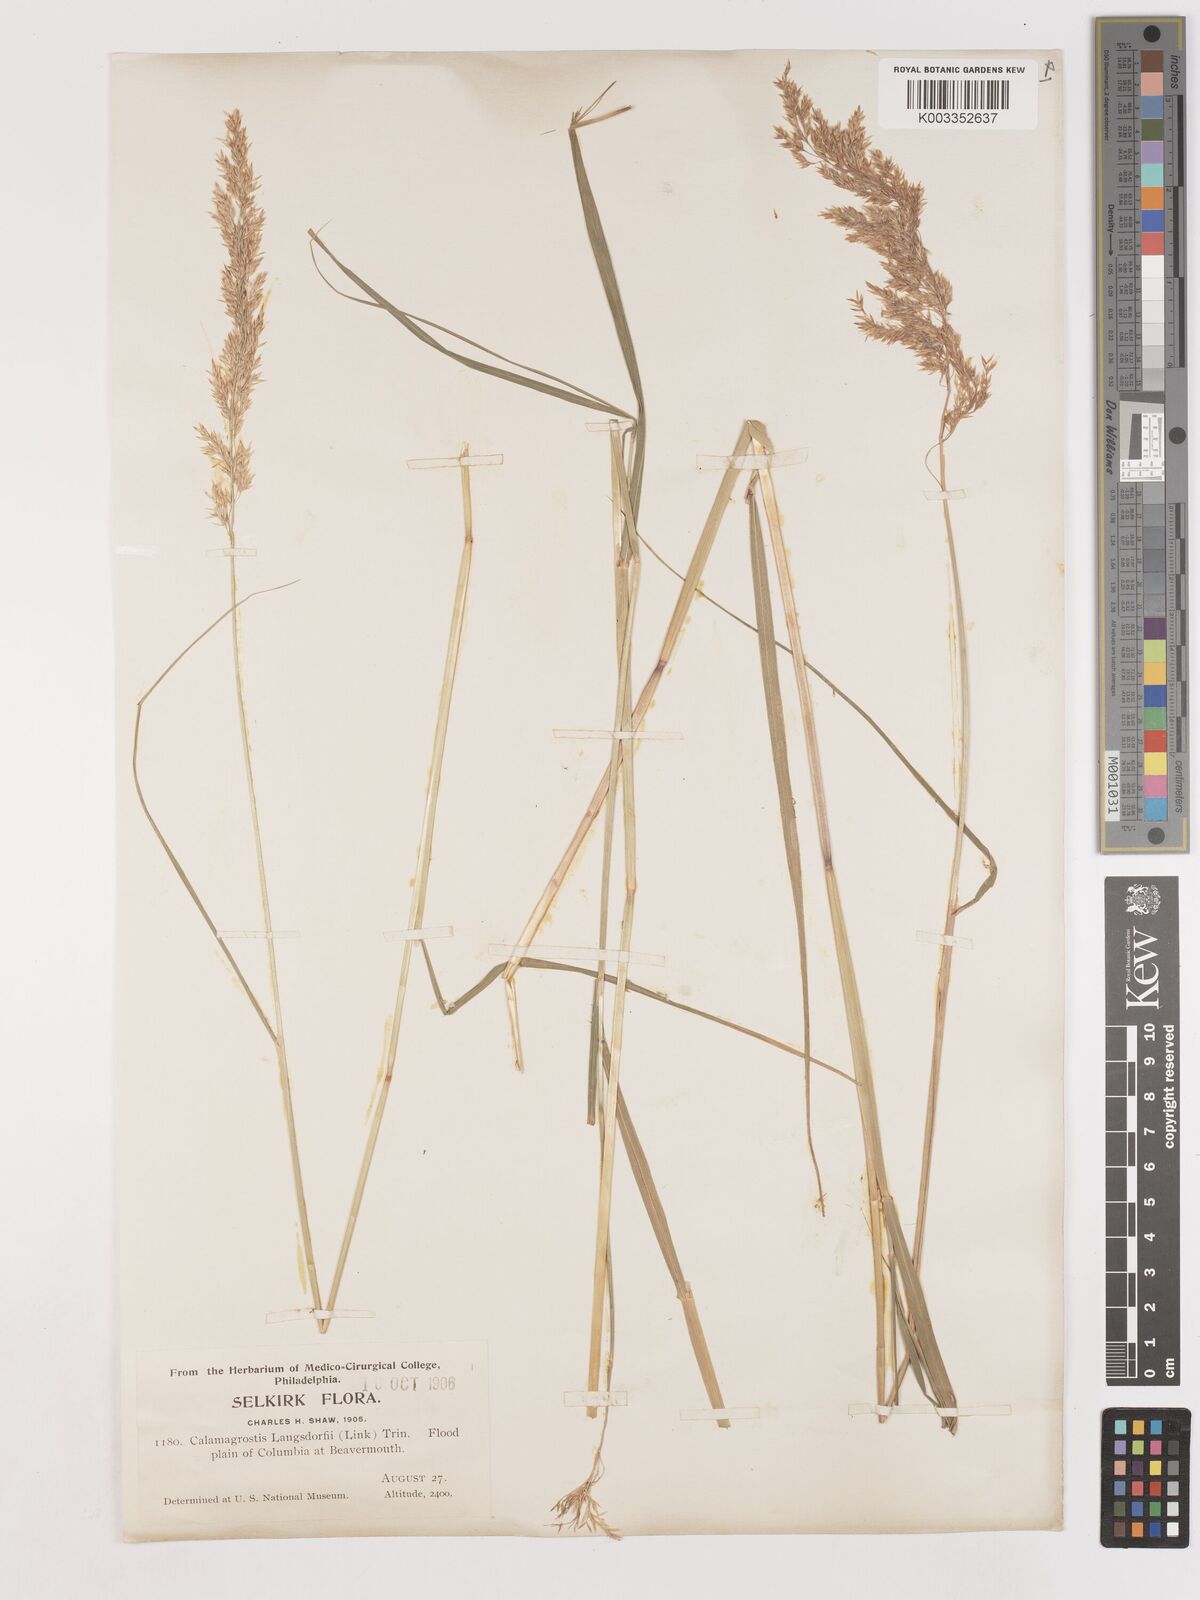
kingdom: Plantae
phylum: Tracheophyta
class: Liliopsida
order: Poales
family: Poaceae
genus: Calamagrostis
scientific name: Calamagrostis canadensis
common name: Canada bluejoint
